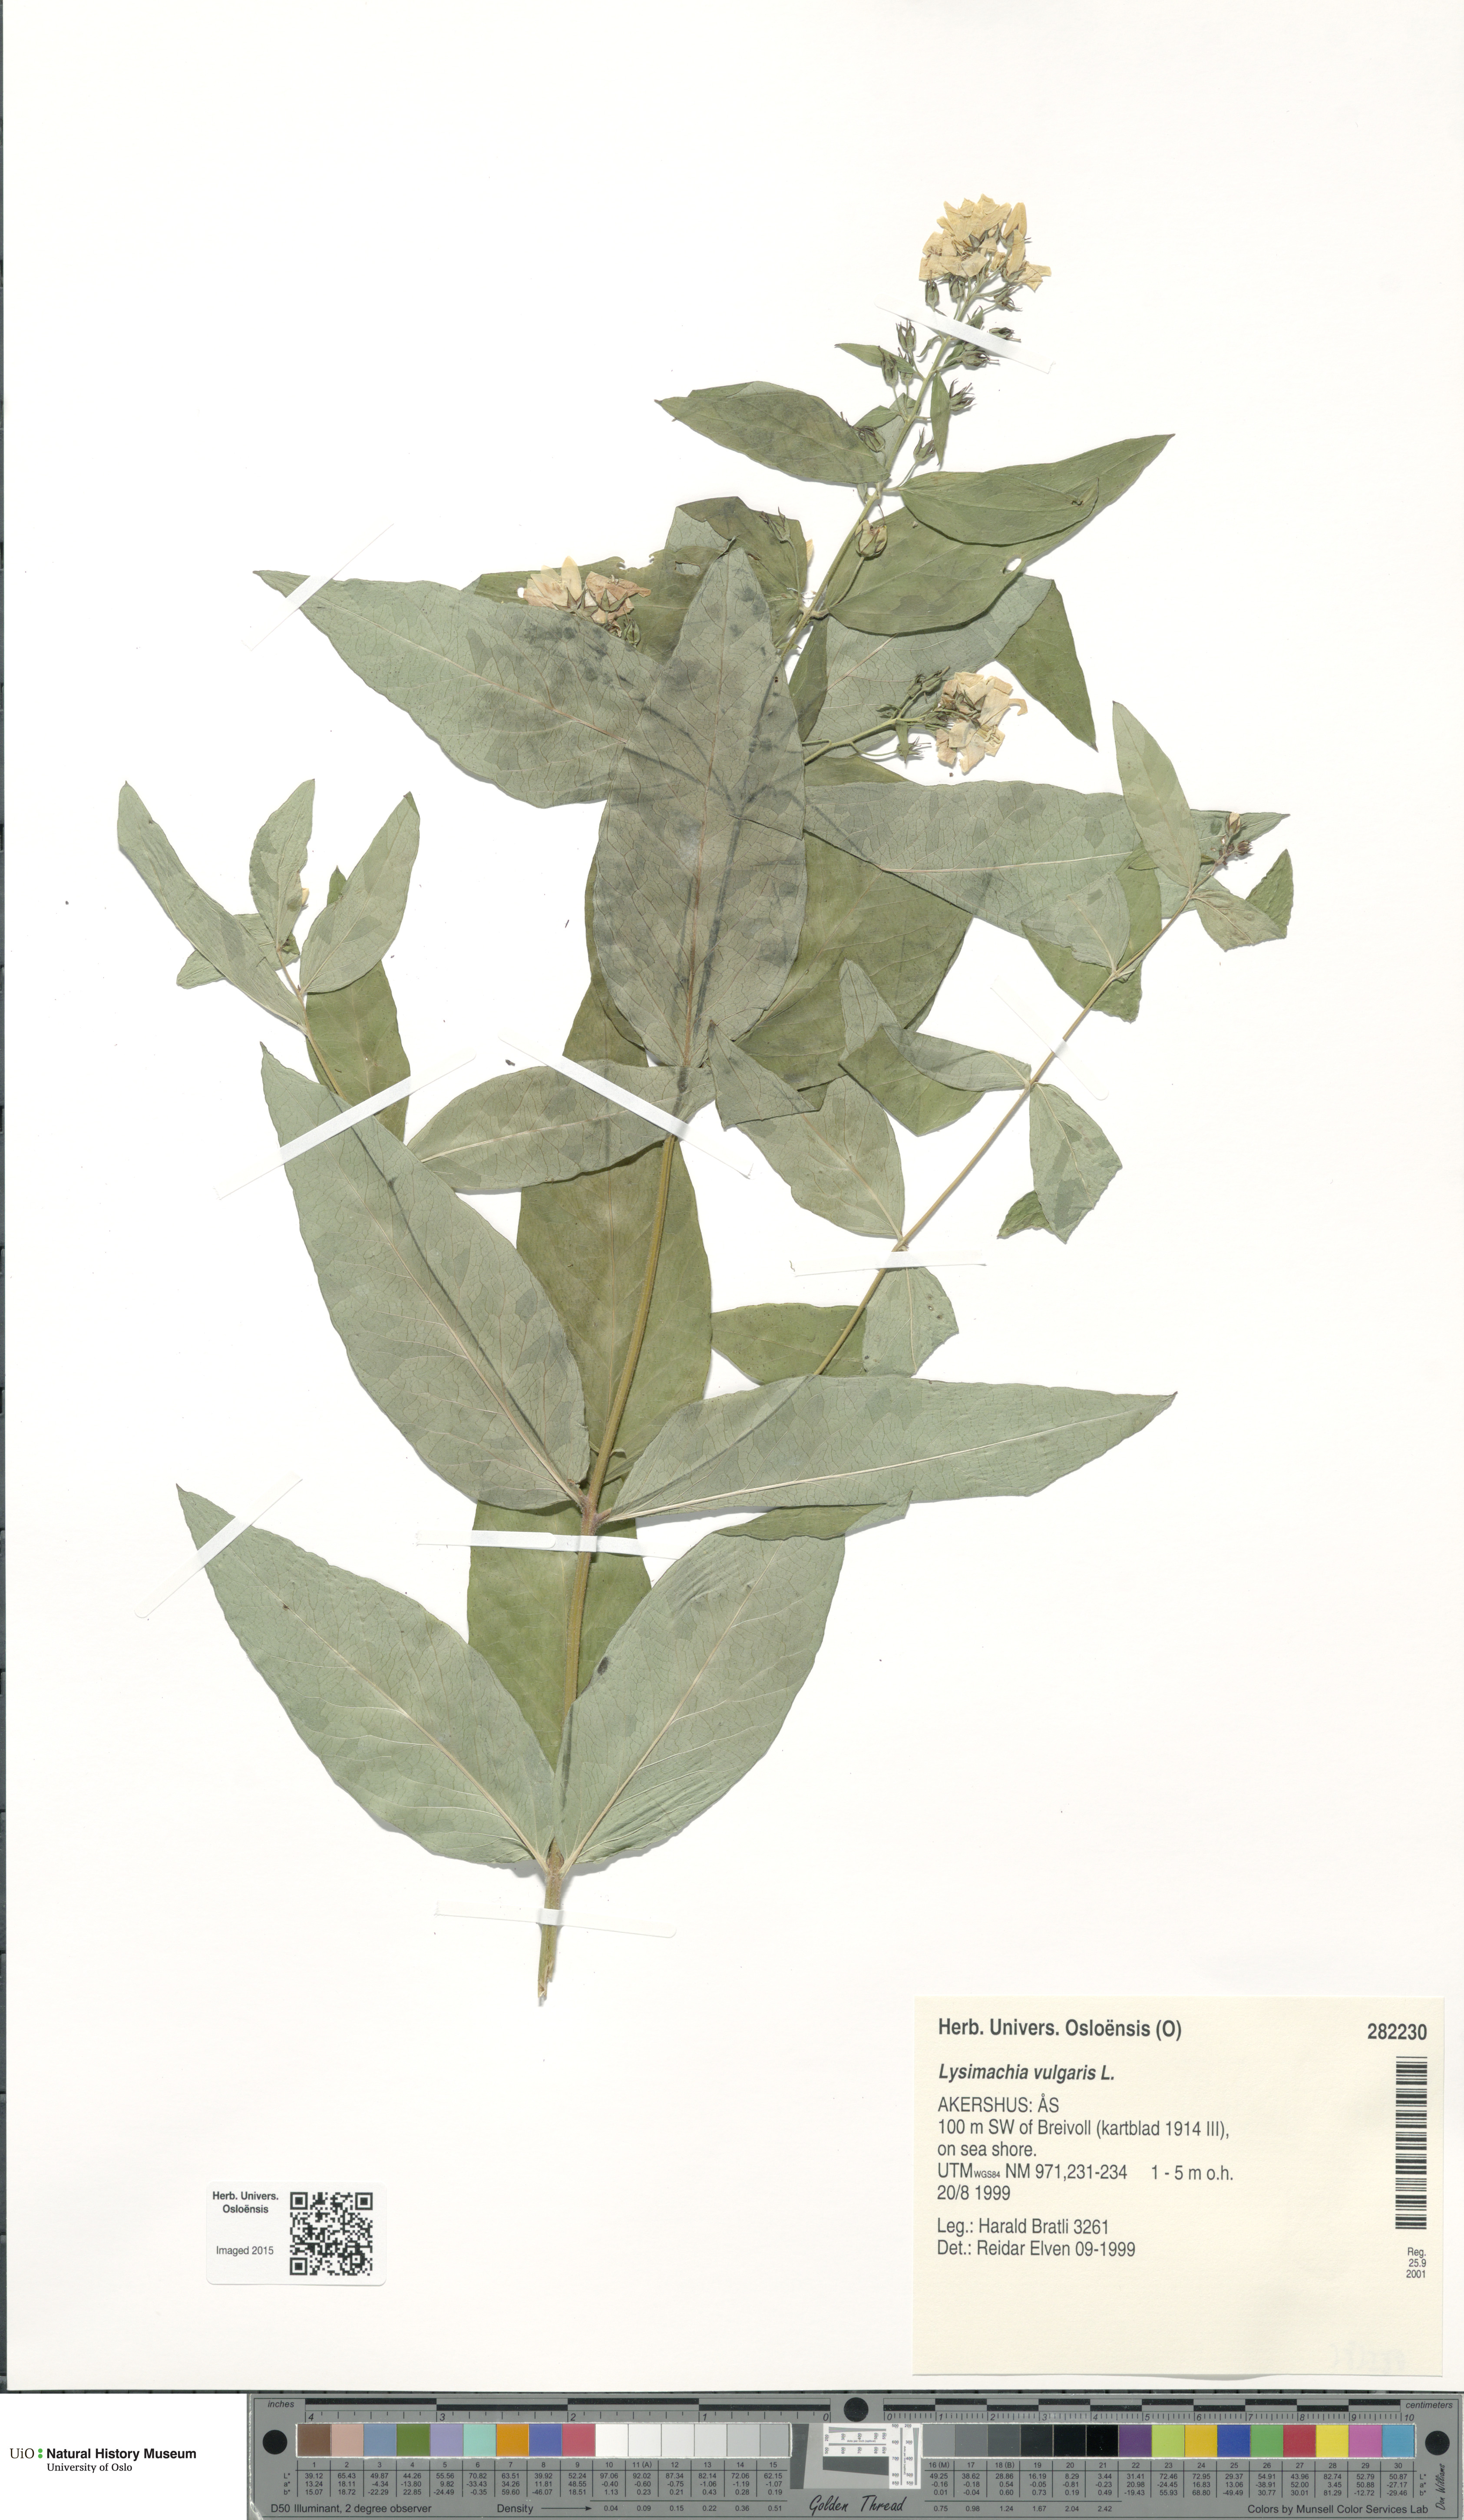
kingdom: Plantae
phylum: Tracheophyta
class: Magnoliopsida
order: Ericales
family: Primulaceae
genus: Lysimachia
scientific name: Lysimachia vulgaris
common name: Yellow loosestrife
